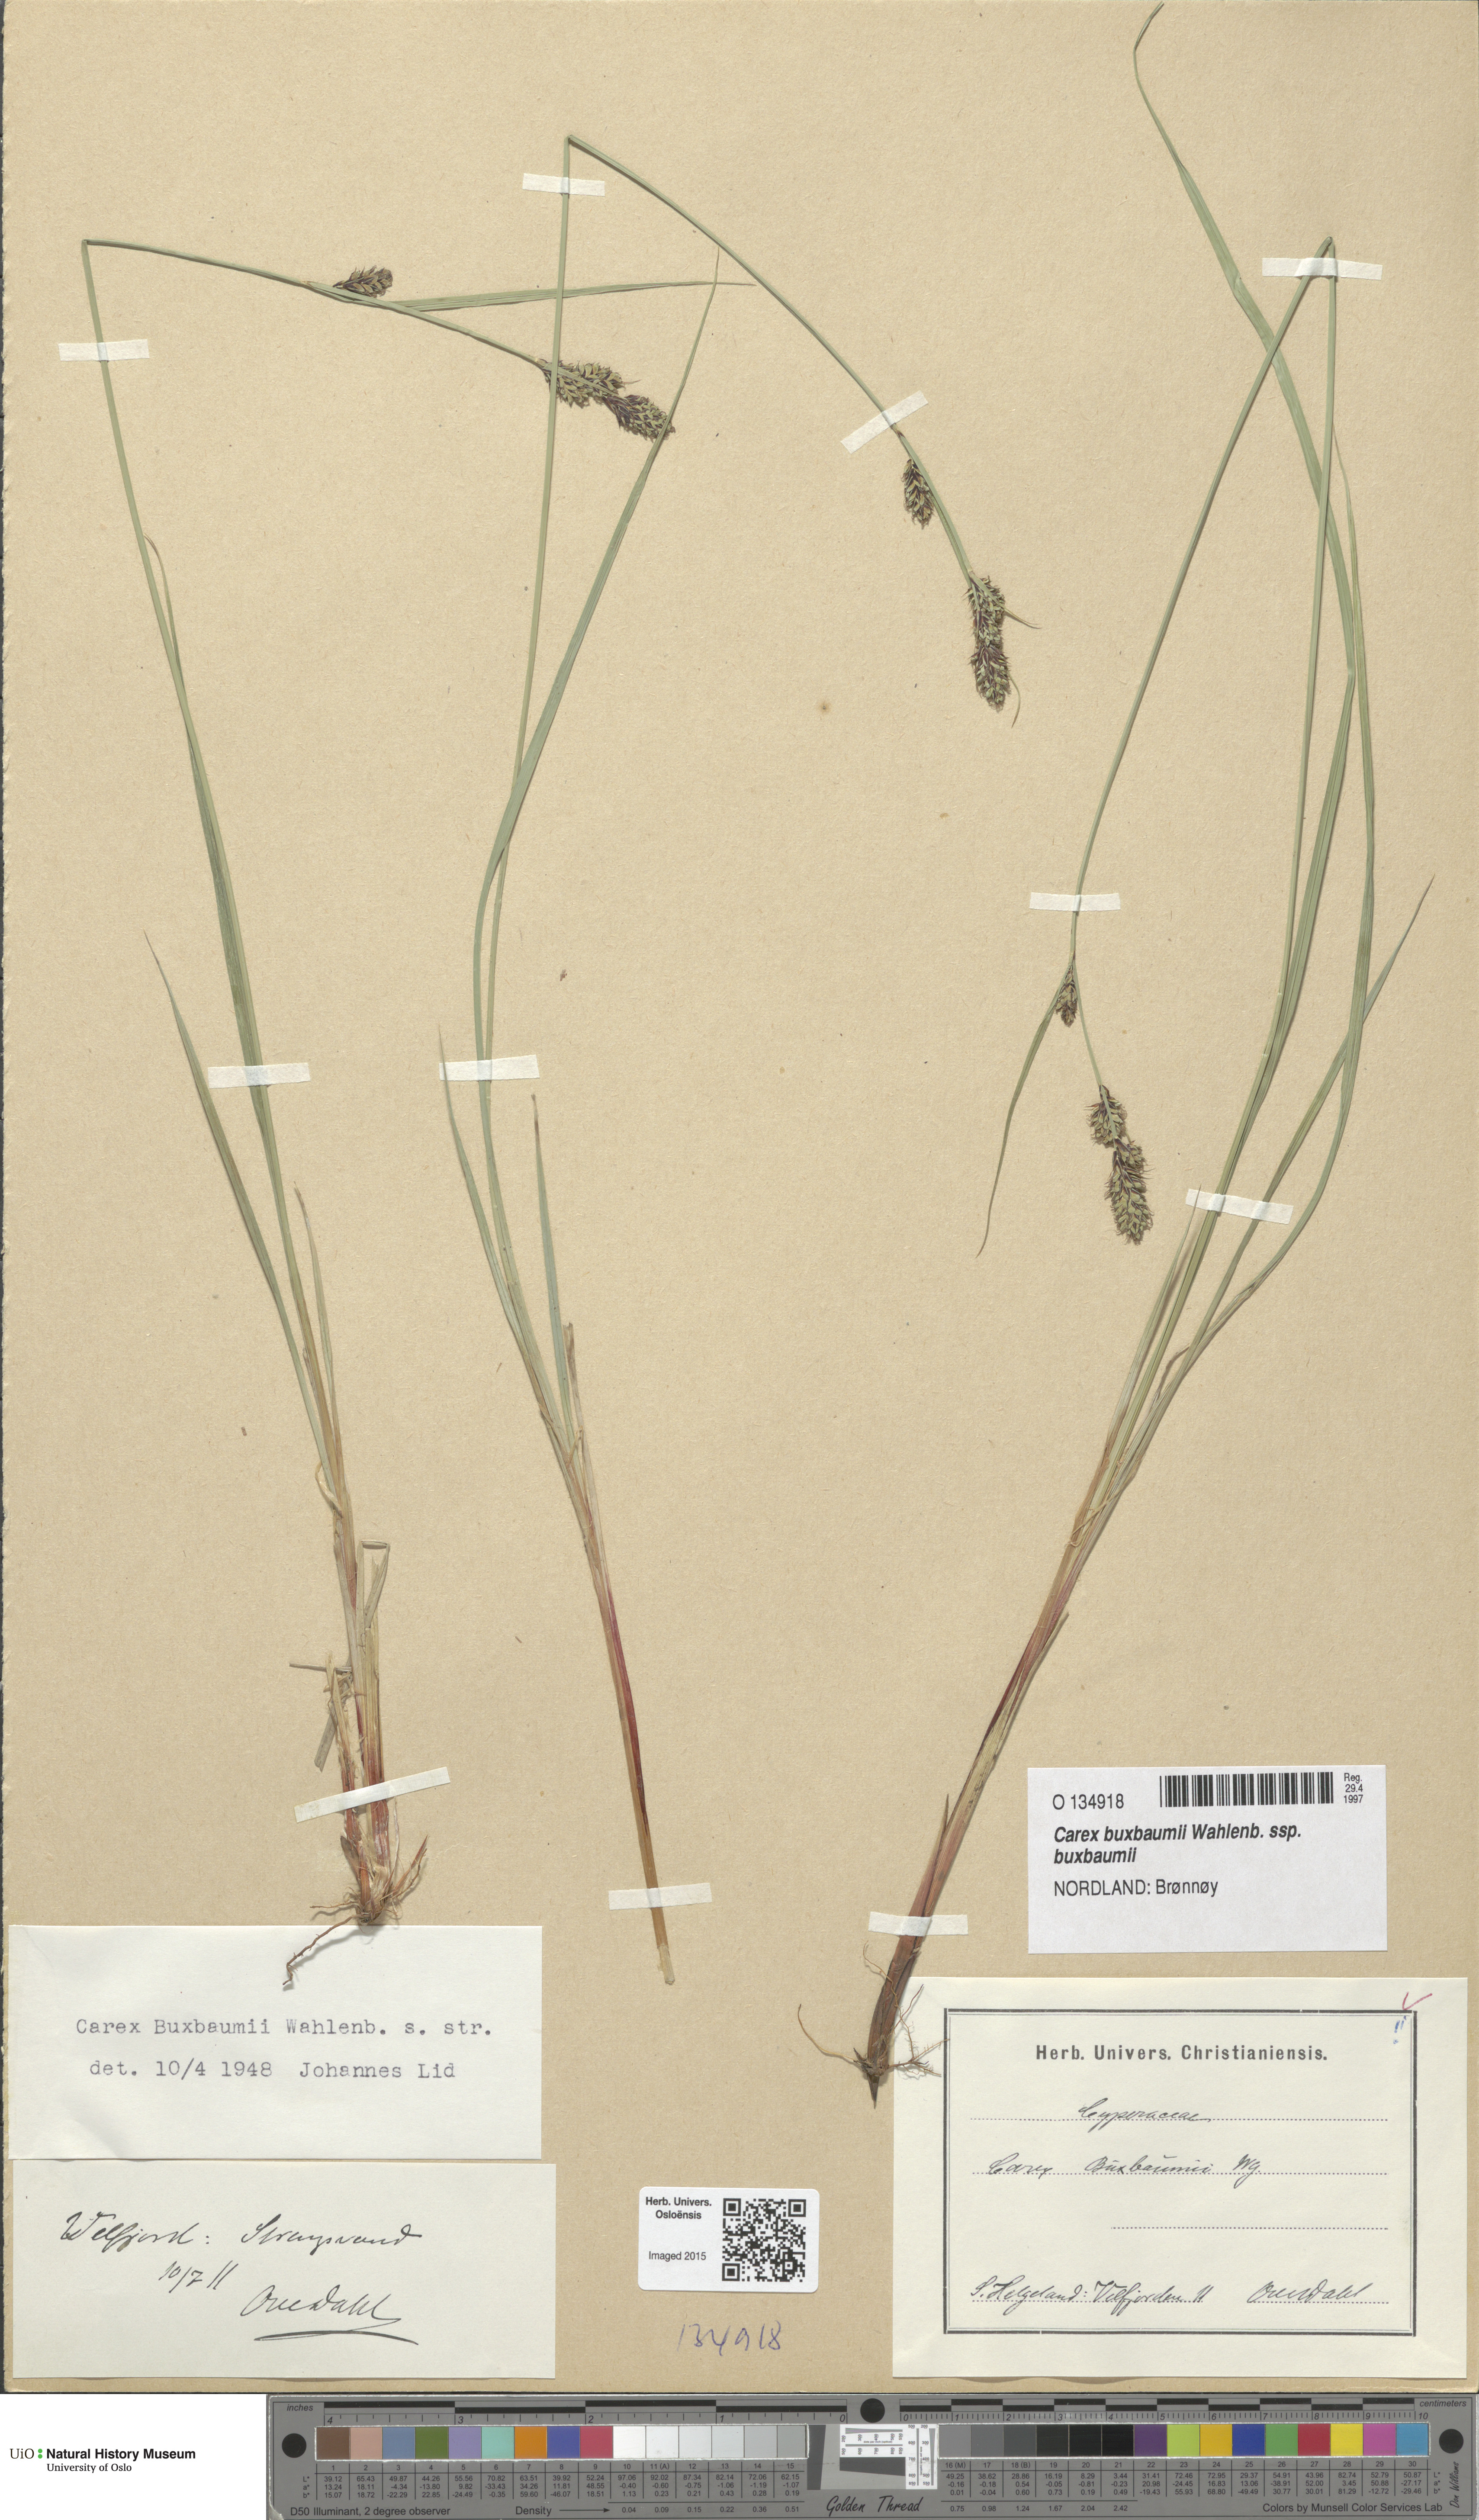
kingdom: Plantae
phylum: Tracheophyta
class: Liliopsida
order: Poales
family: Cyperaceae
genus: Carex
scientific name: Carex buxbaumii
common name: Club sedge
